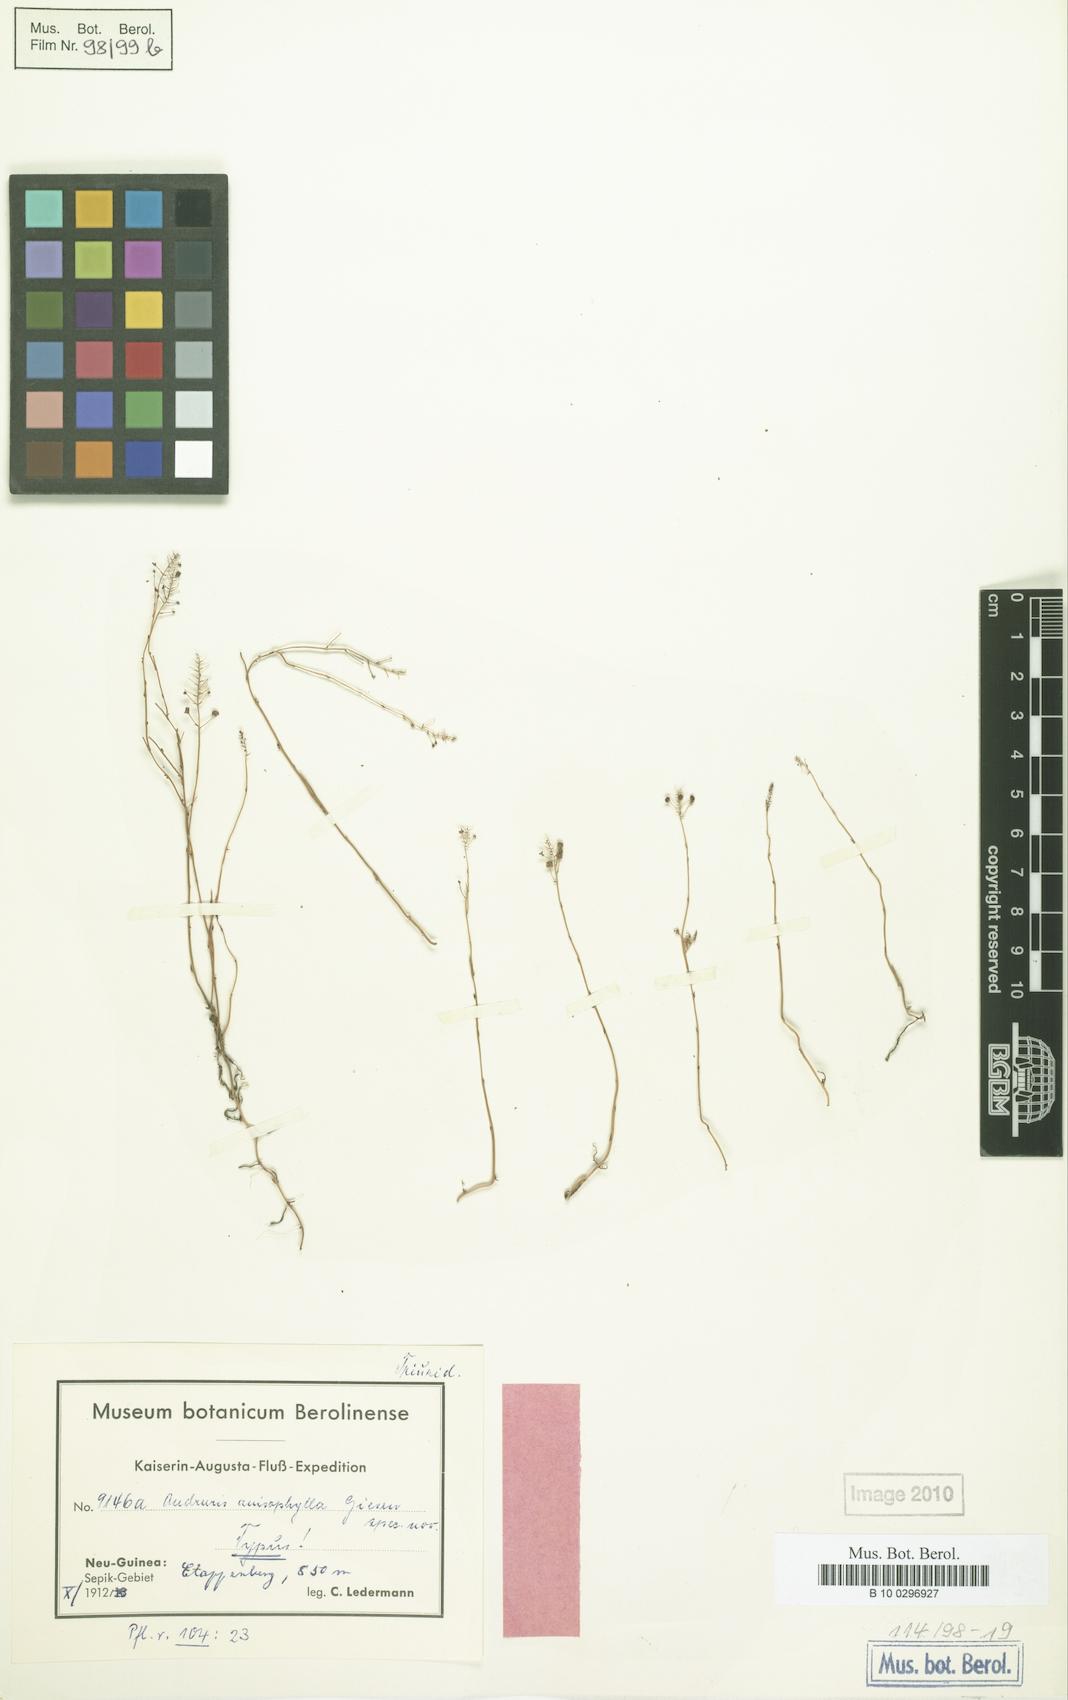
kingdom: Plantae
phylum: Tracheophyta
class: Liliopsida
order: Pandanales
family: Triuridaceae
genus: Sciaphila
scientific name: Sciaphila arfakiana
